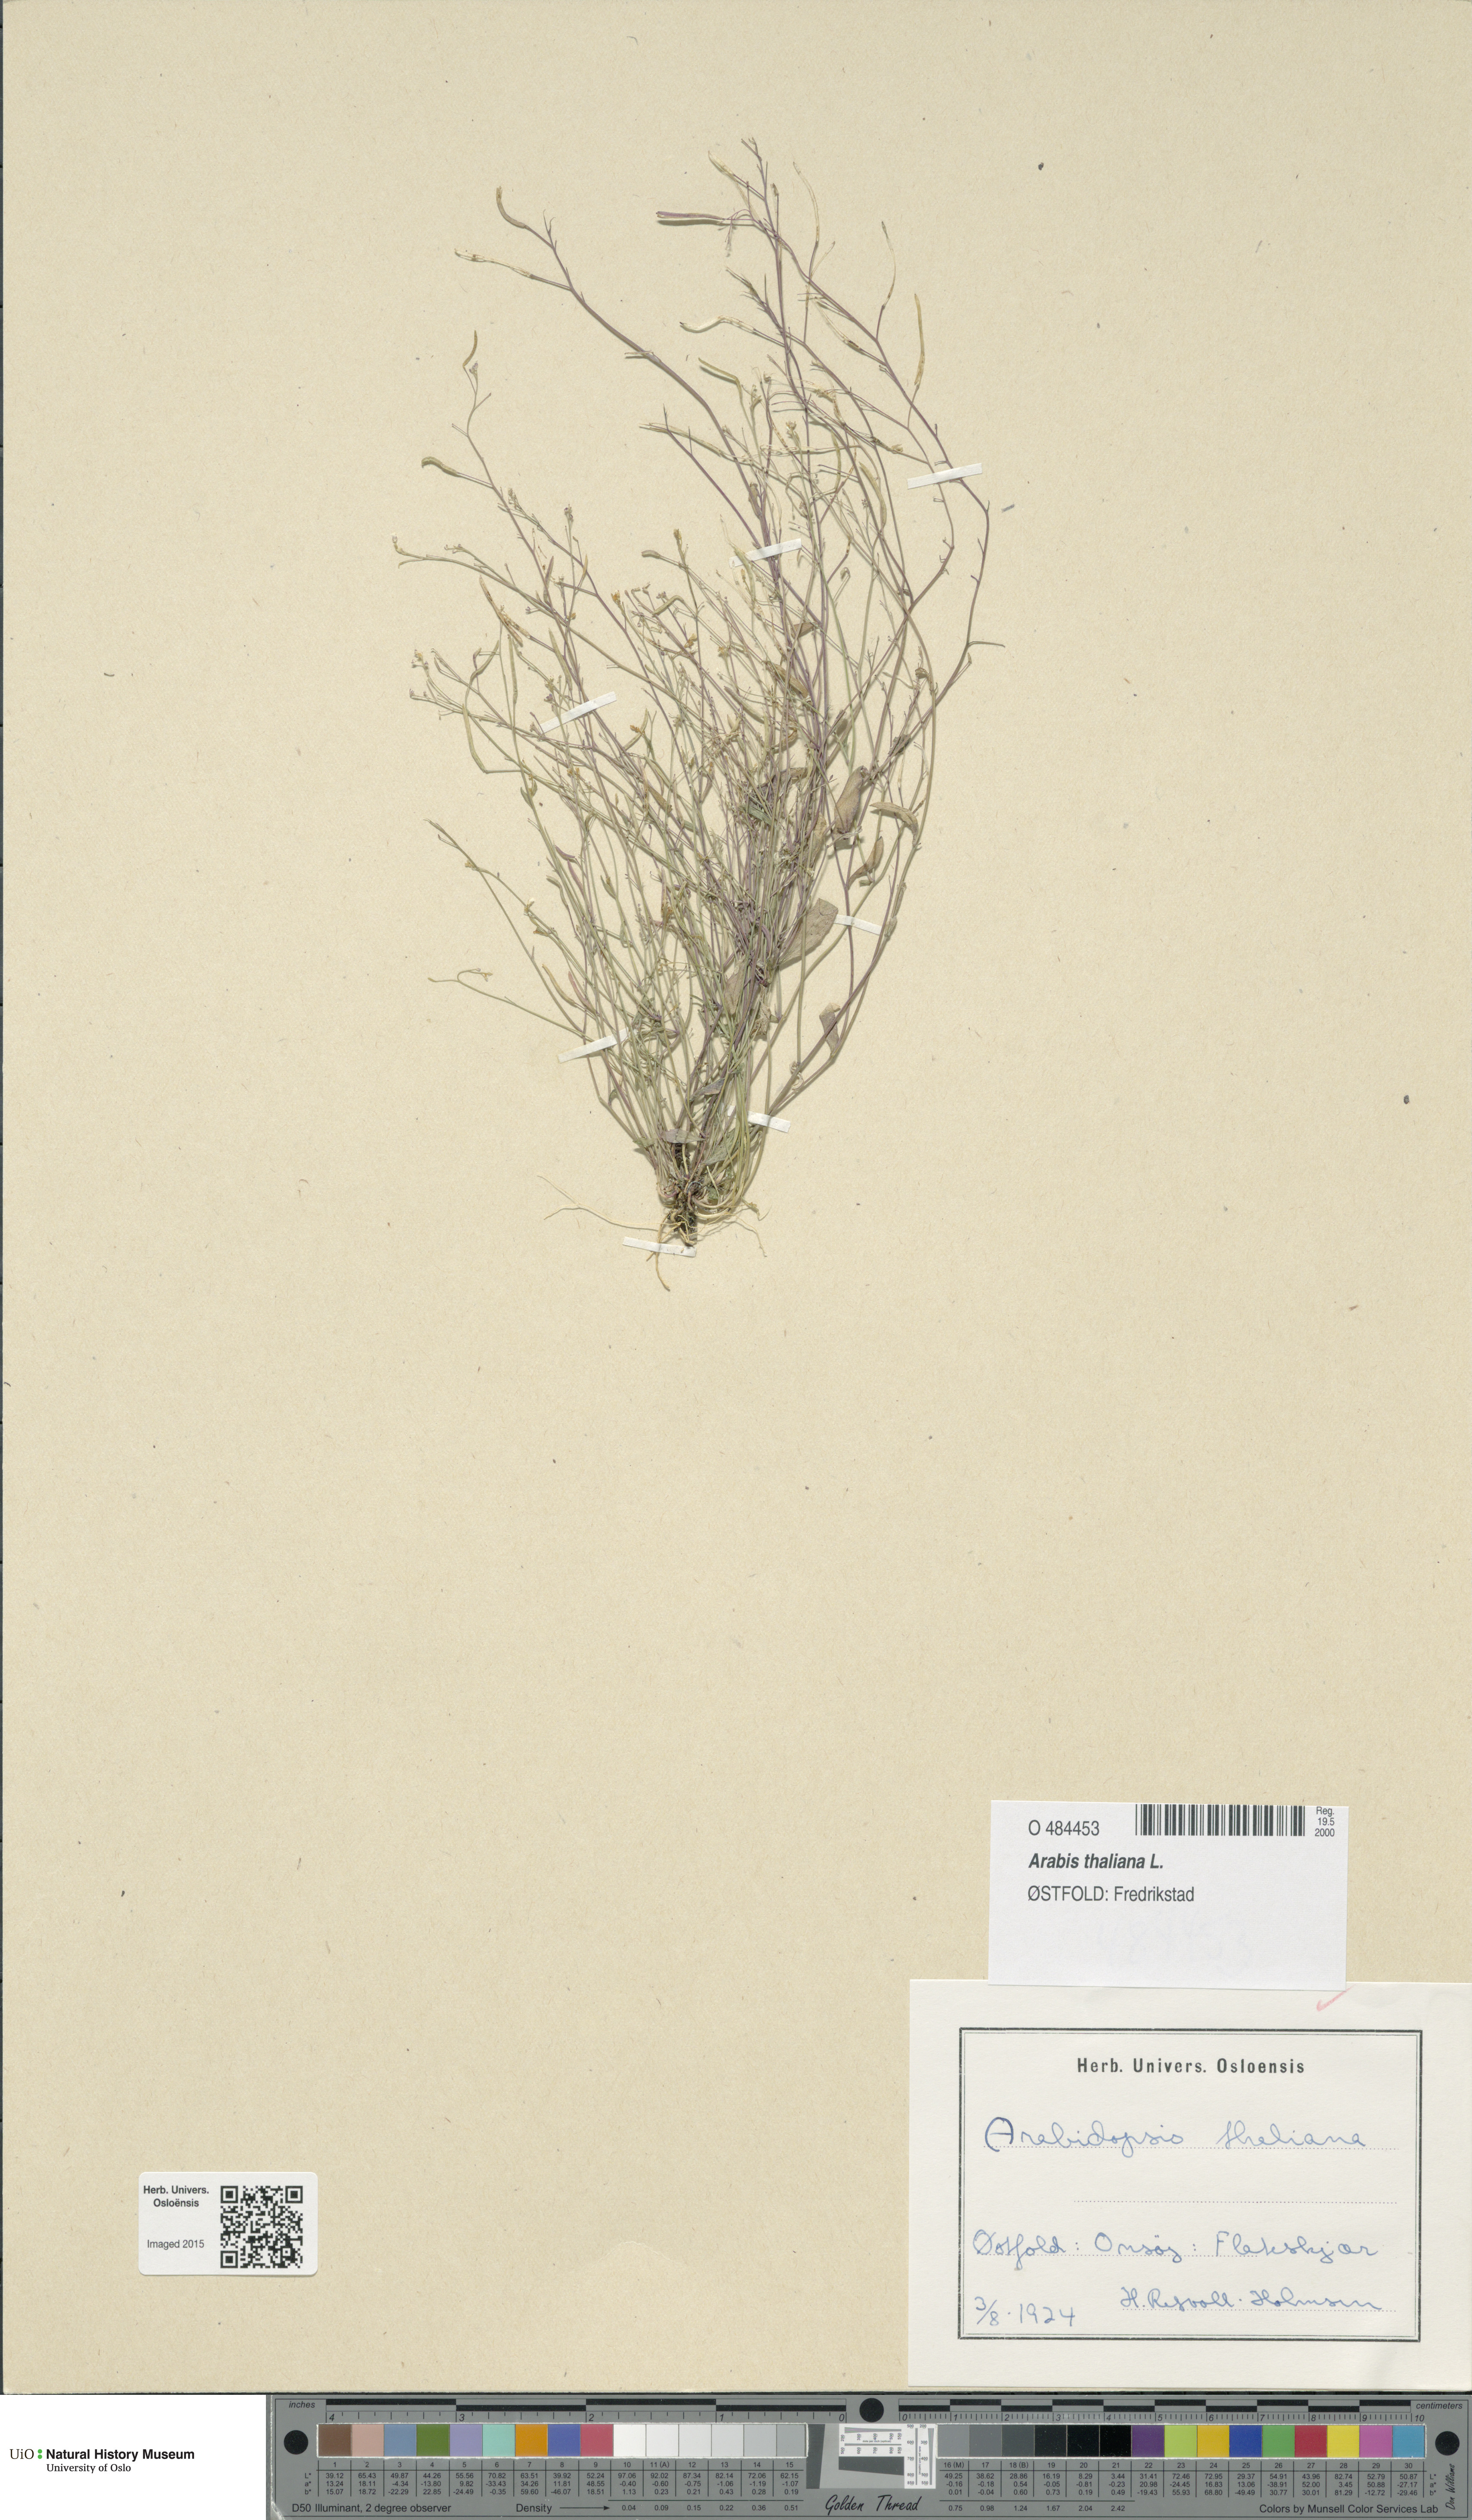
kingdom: Plantae
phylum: Tracheophyta
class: Magnoliopsida
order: Brassicales
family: Brassicaceae
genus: Arabidopsis
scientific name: Arabidopsis thaliana
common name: Thale cress
